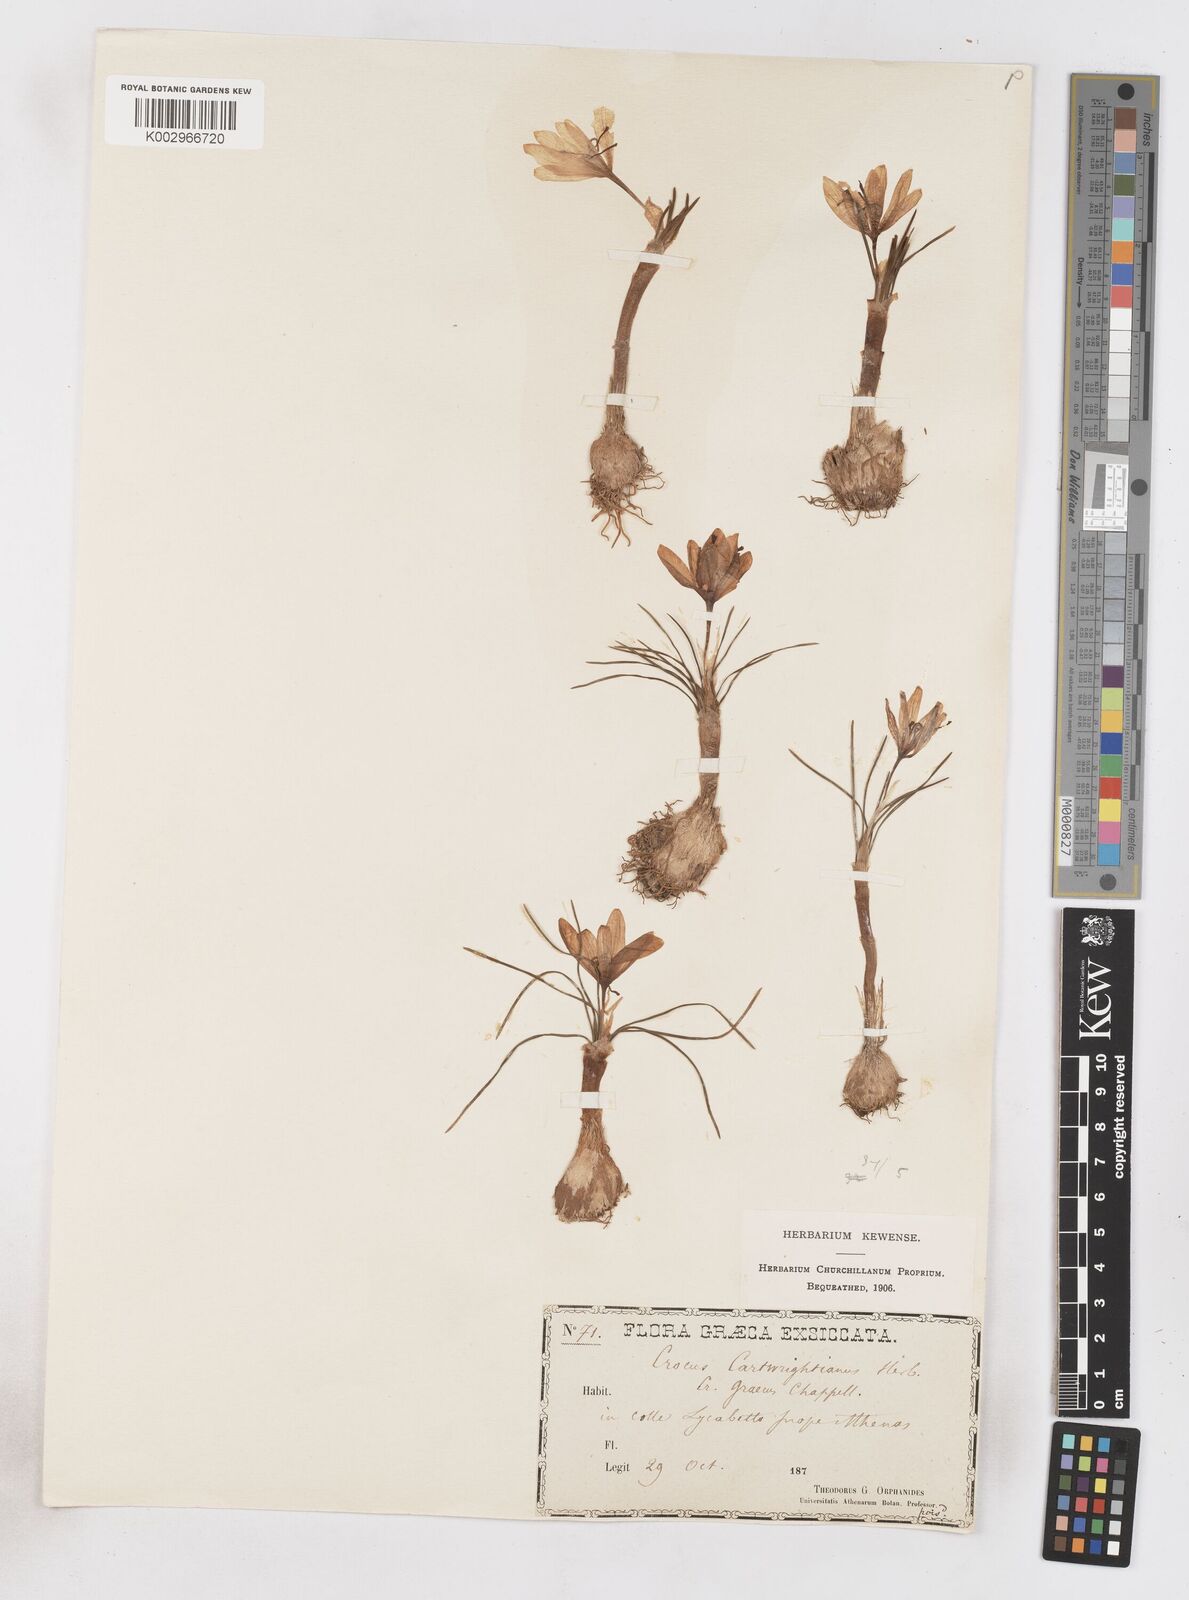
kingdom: Plantae
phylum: Tracheophyta
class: Liliopsida
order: Asparagales
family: Iridaceae
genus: Crocus
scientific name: Crocus cartwrightianus
